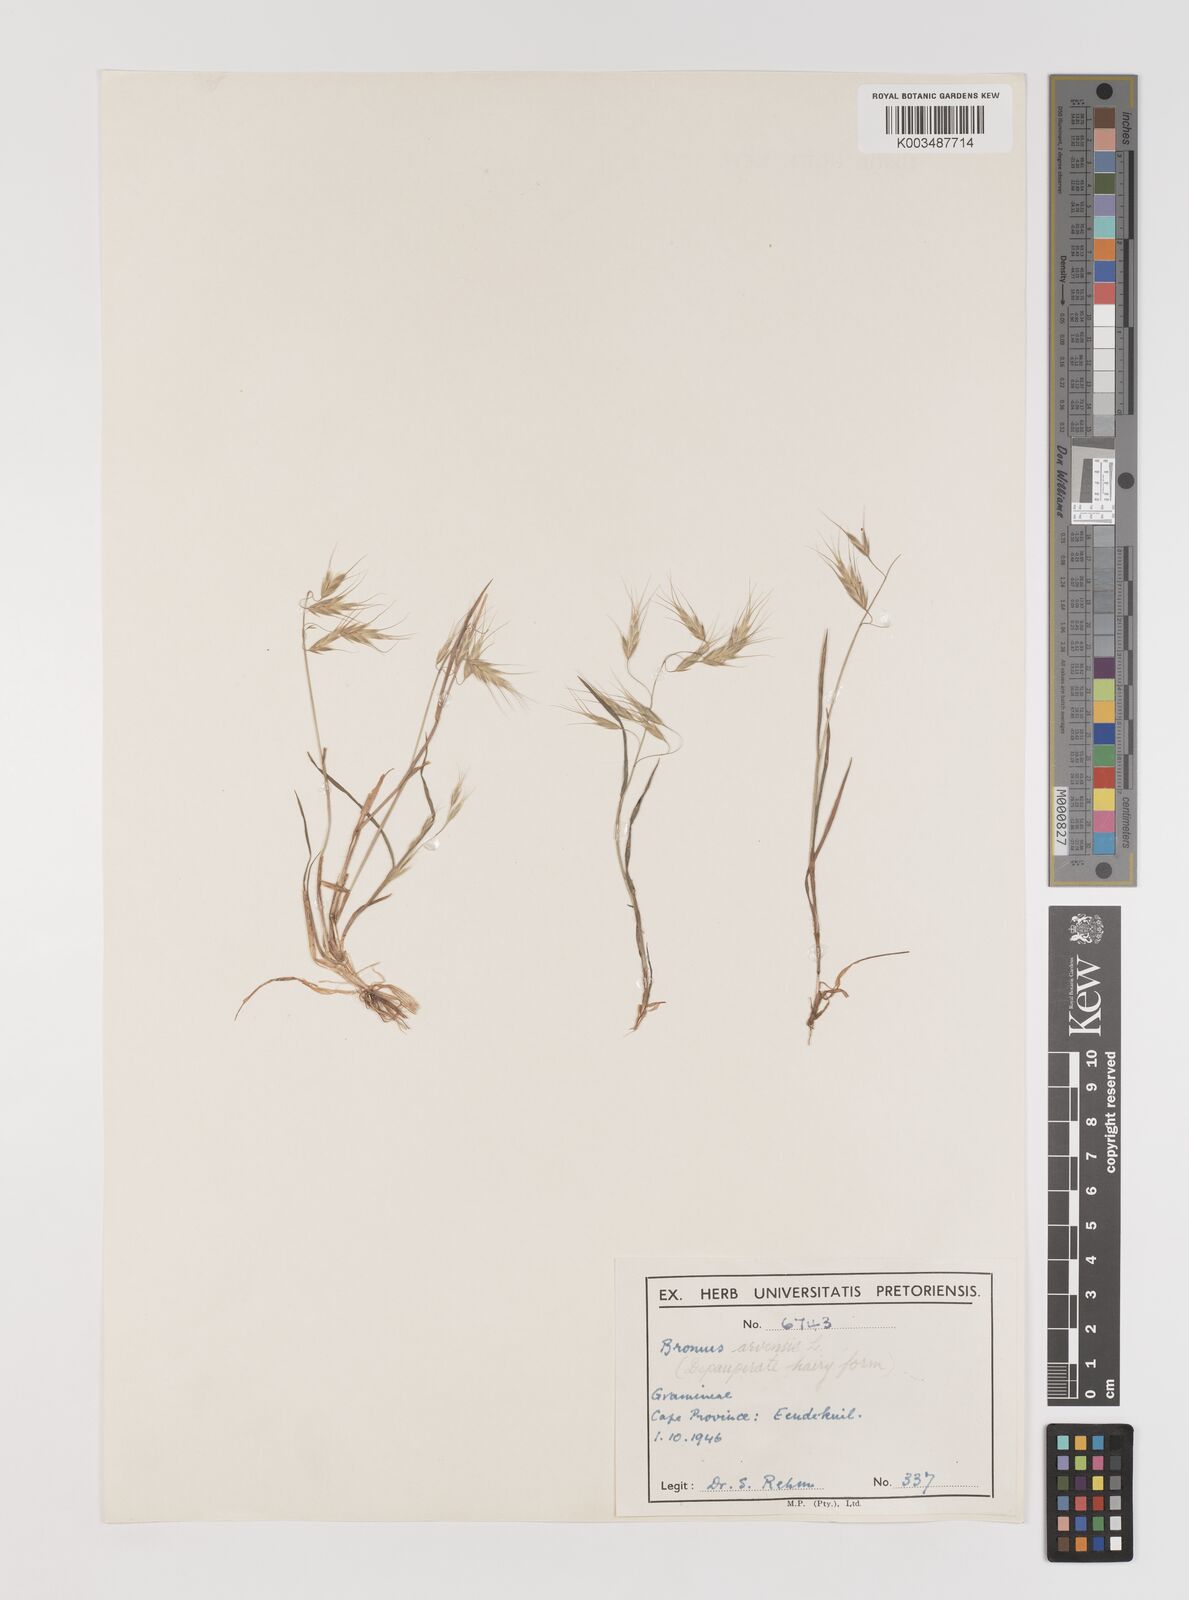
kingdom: Plantae
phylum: Tracheophyta
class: Liliopsida
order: Poales
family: Poaceae
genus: Bromus
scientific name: Bromus pectinatus
